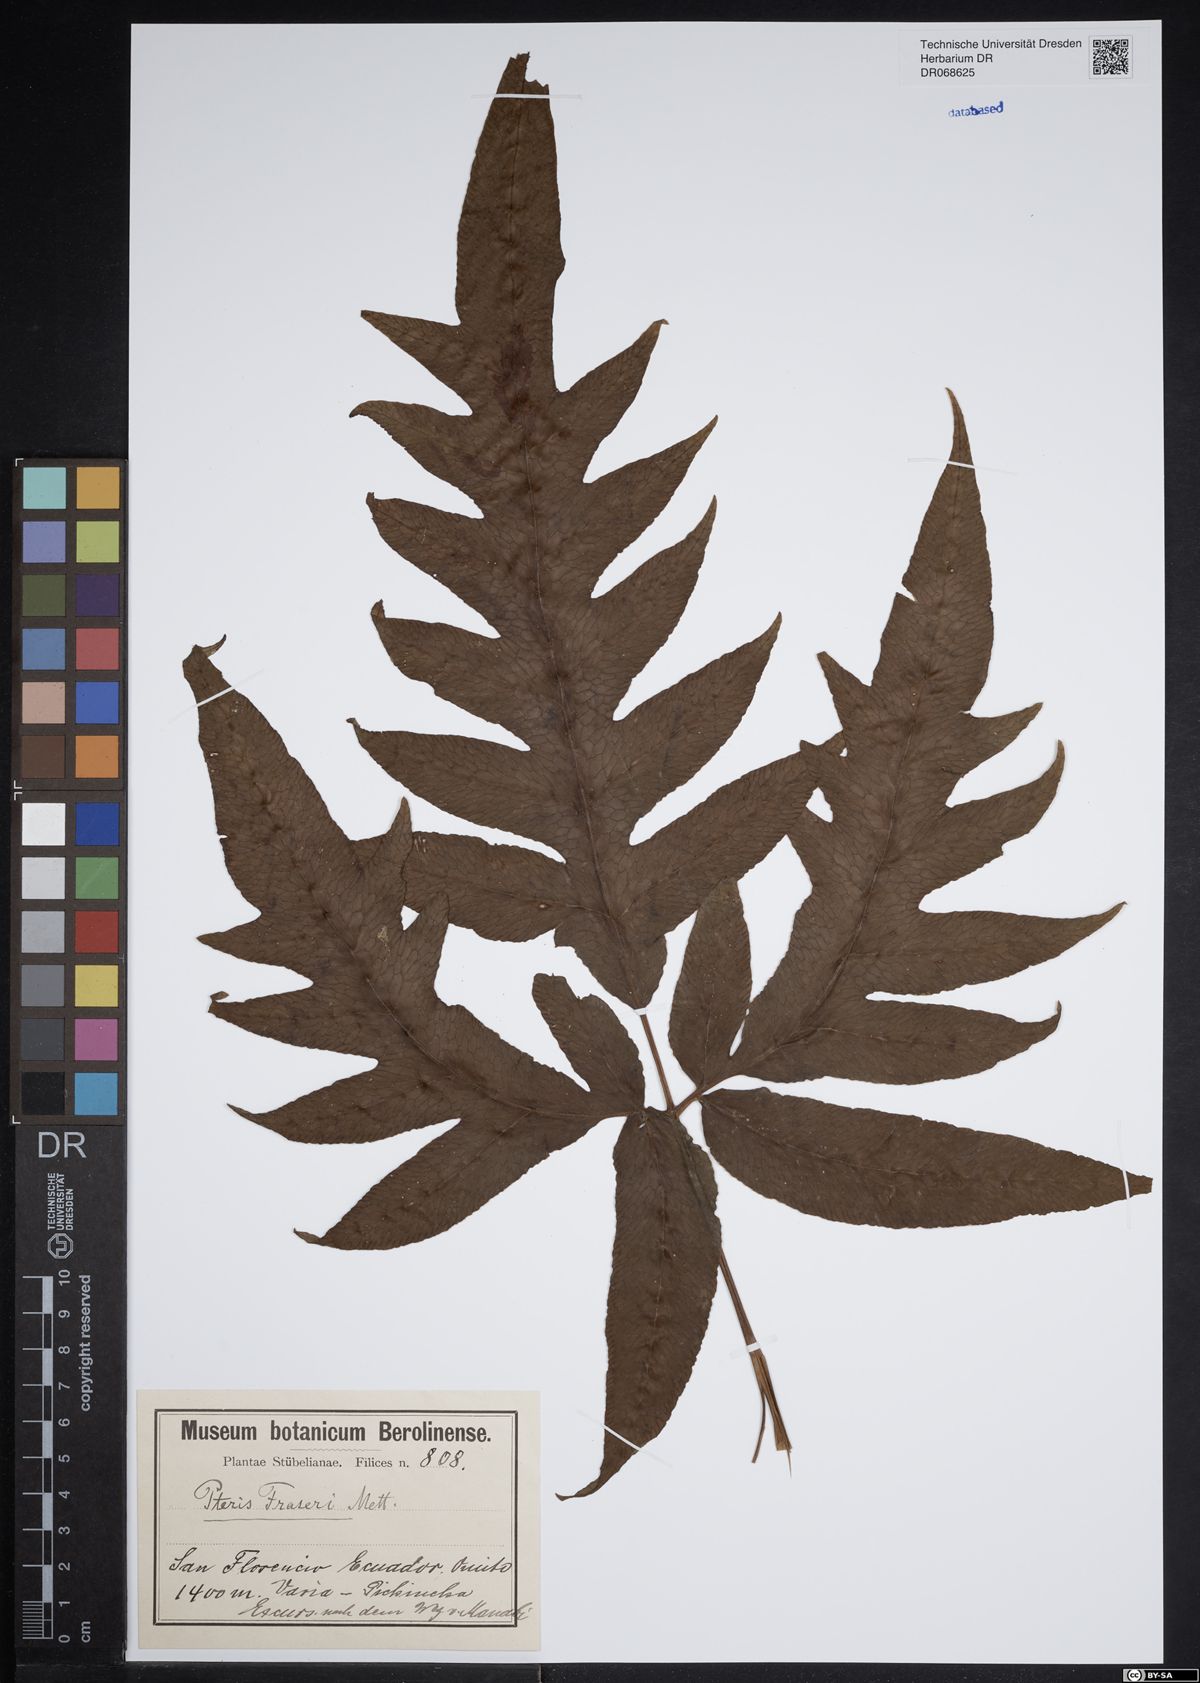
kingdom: Plantae
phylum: Tracheophyta
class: Polypodiopsida
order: Polypodiales
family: Pteridaceae
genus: Pteris
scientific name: Pteris fraseri
